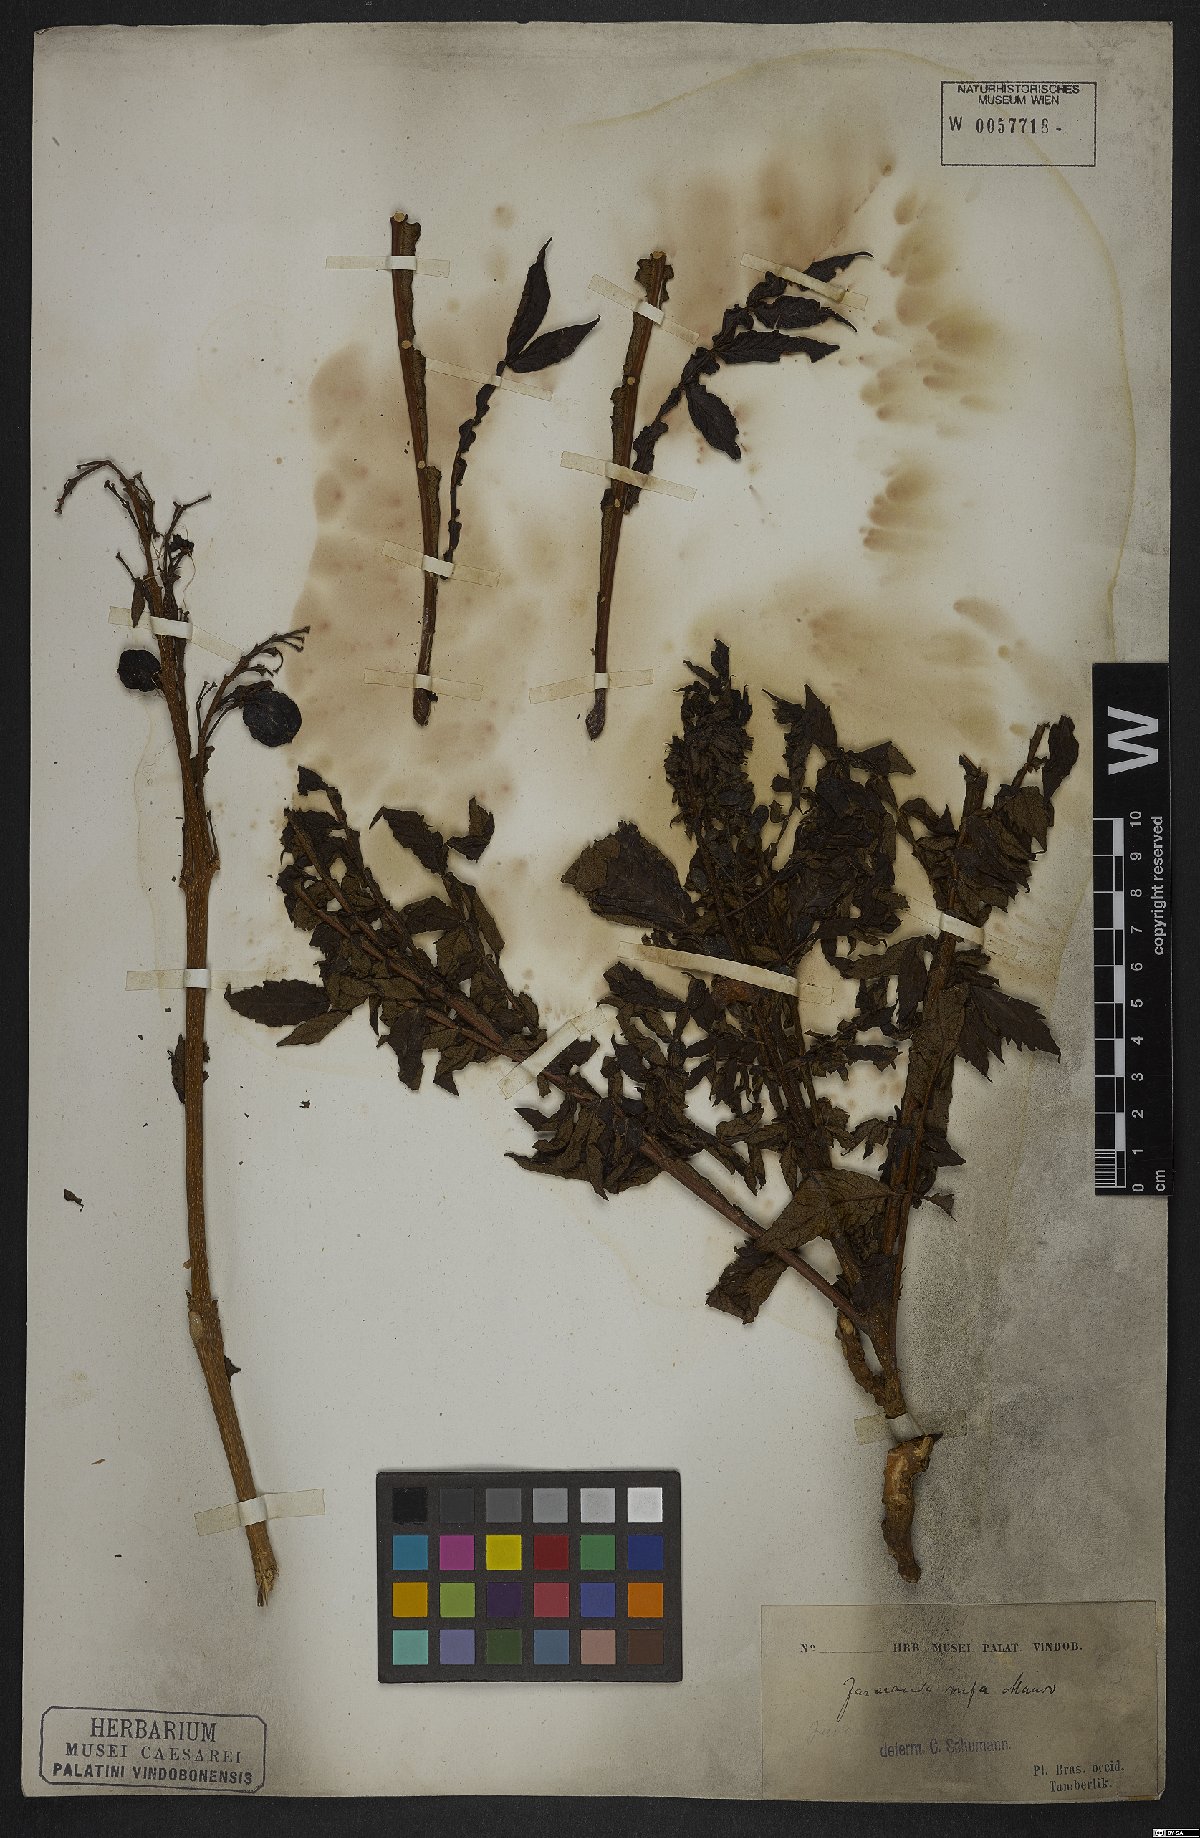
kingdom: Plantae
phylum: Tracheophyta
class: Magnoliopsida
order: Lamiales
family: Bignoniaceae
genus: Jacaranda
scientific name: Jacaranda rufa
